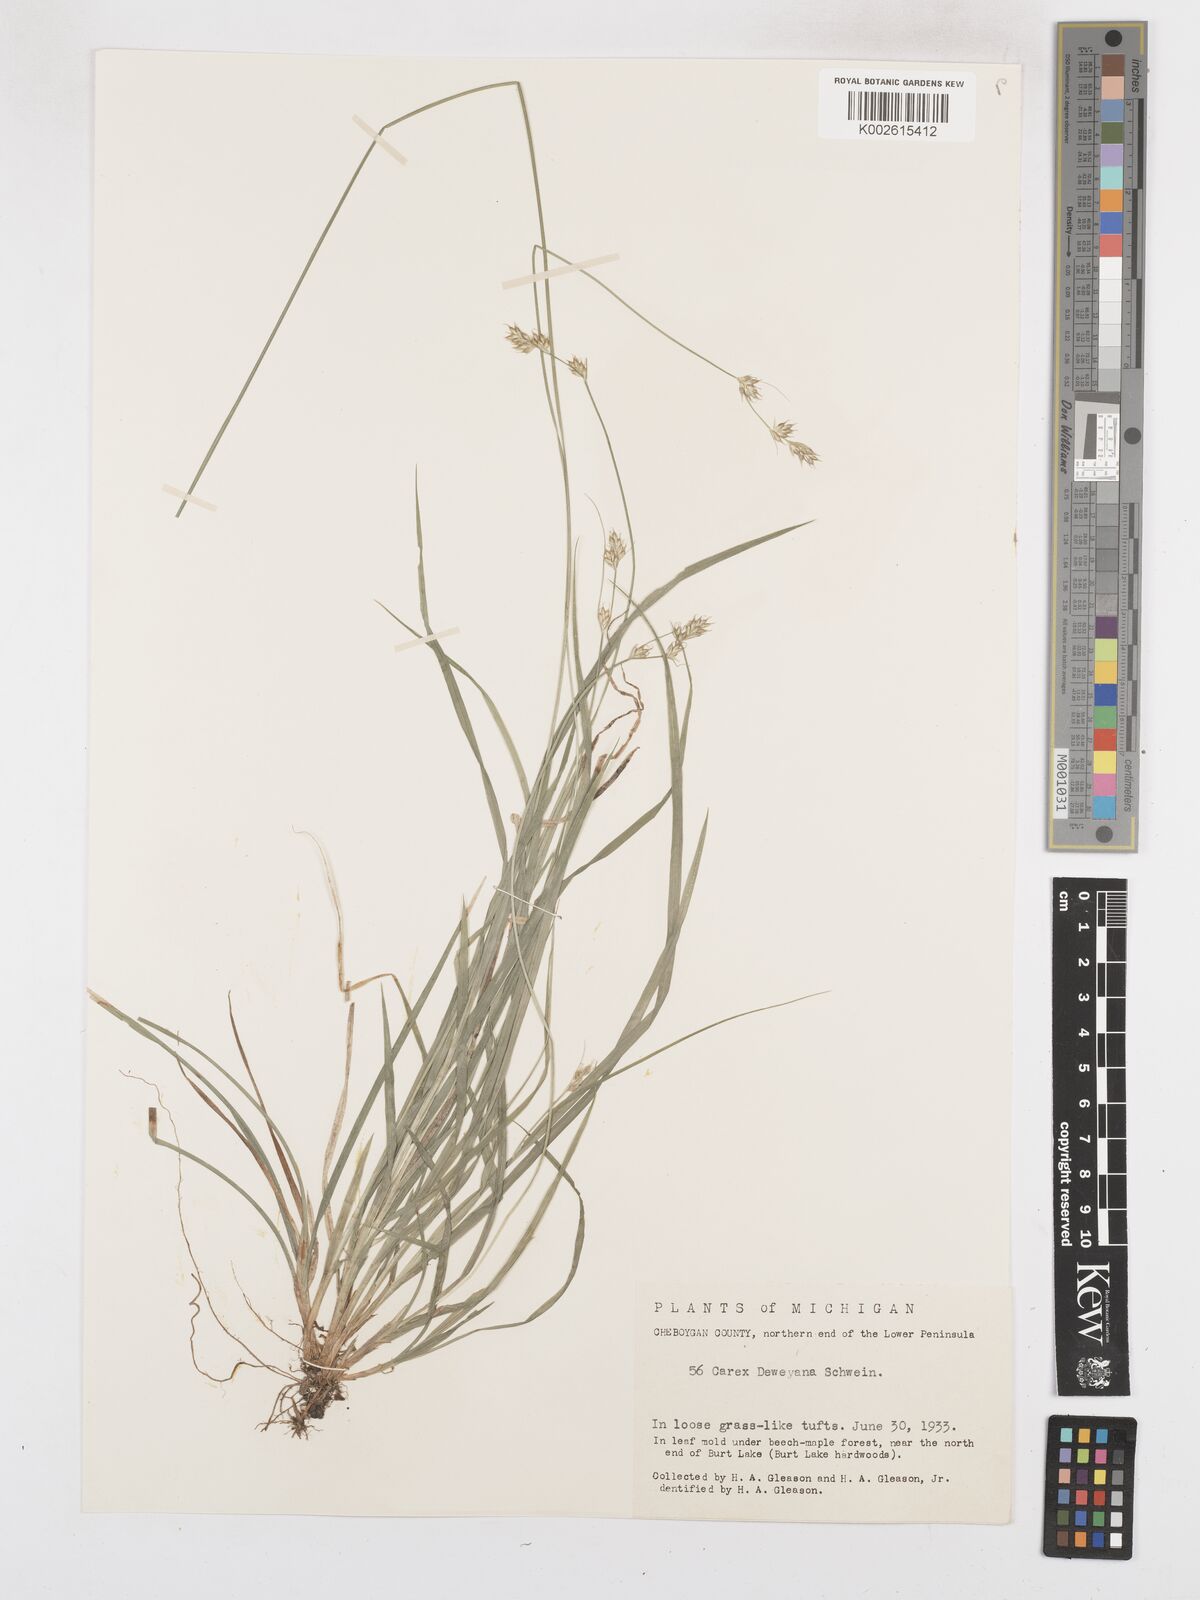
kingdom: Plantae
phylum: Tracheophyta
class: Liliopsida
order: Poales
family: Cyperaceae
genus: Carex
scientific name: Carex bolanderi
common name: Bolander's sedge
